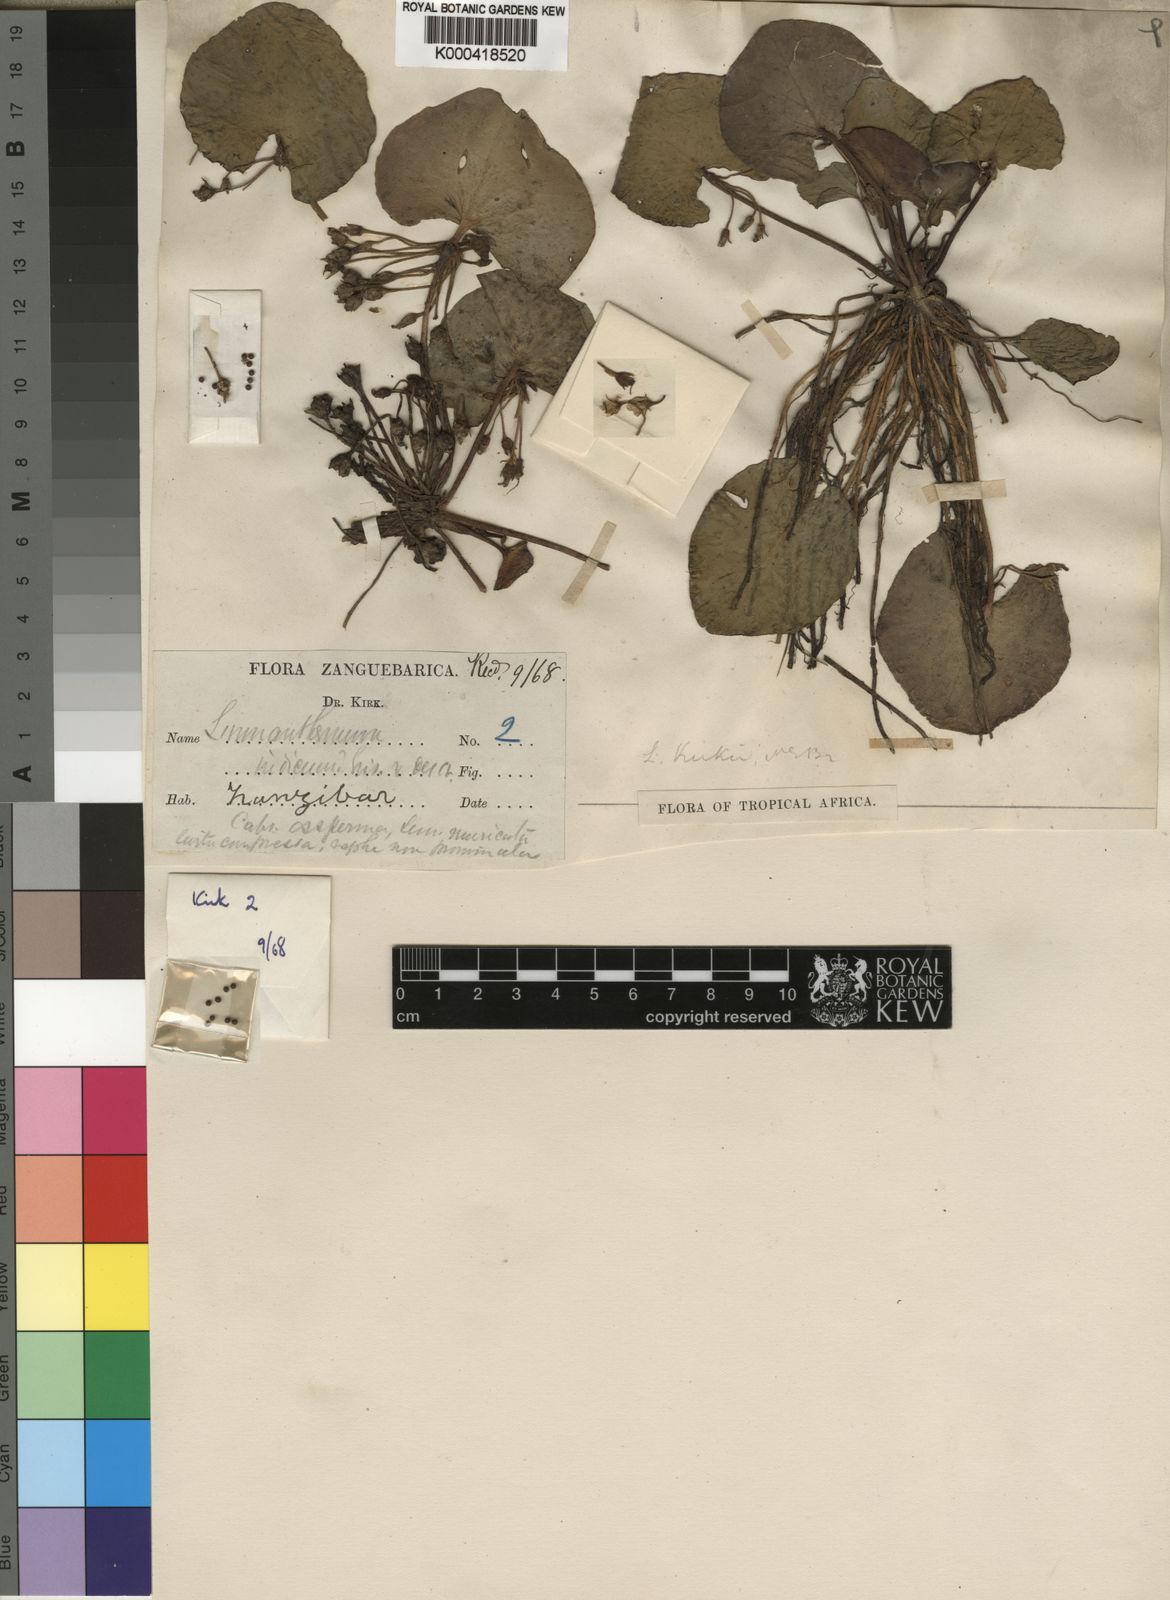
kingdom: Plantae
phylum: Tracheophyta
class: Magnoliopsida
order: Asterales
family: Menyanthaceae
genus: Nymphoides
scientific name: Nymphoides indica
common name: Water-snowflake
